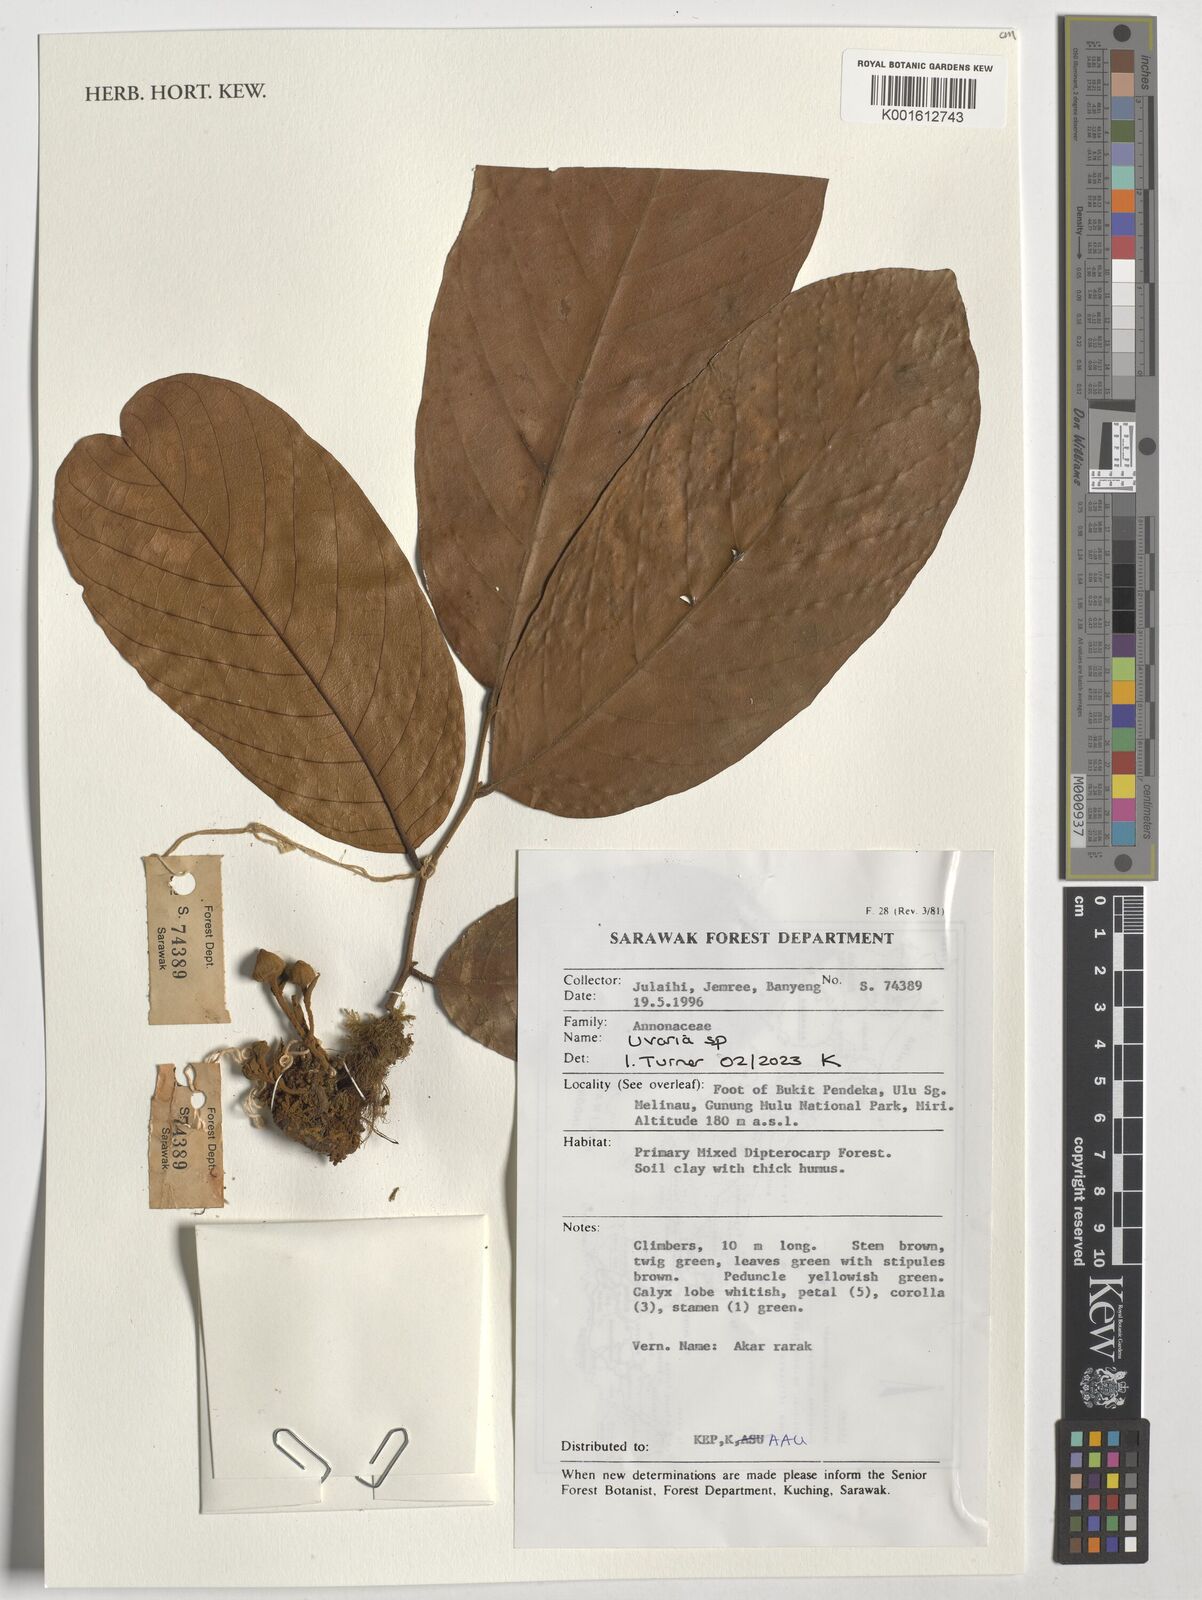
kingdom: Plantae
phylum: Tracheophyta
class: Magnoliopsida
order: Magnoliales
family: Annonaceae
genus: Uvaria
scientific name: Uvaria
